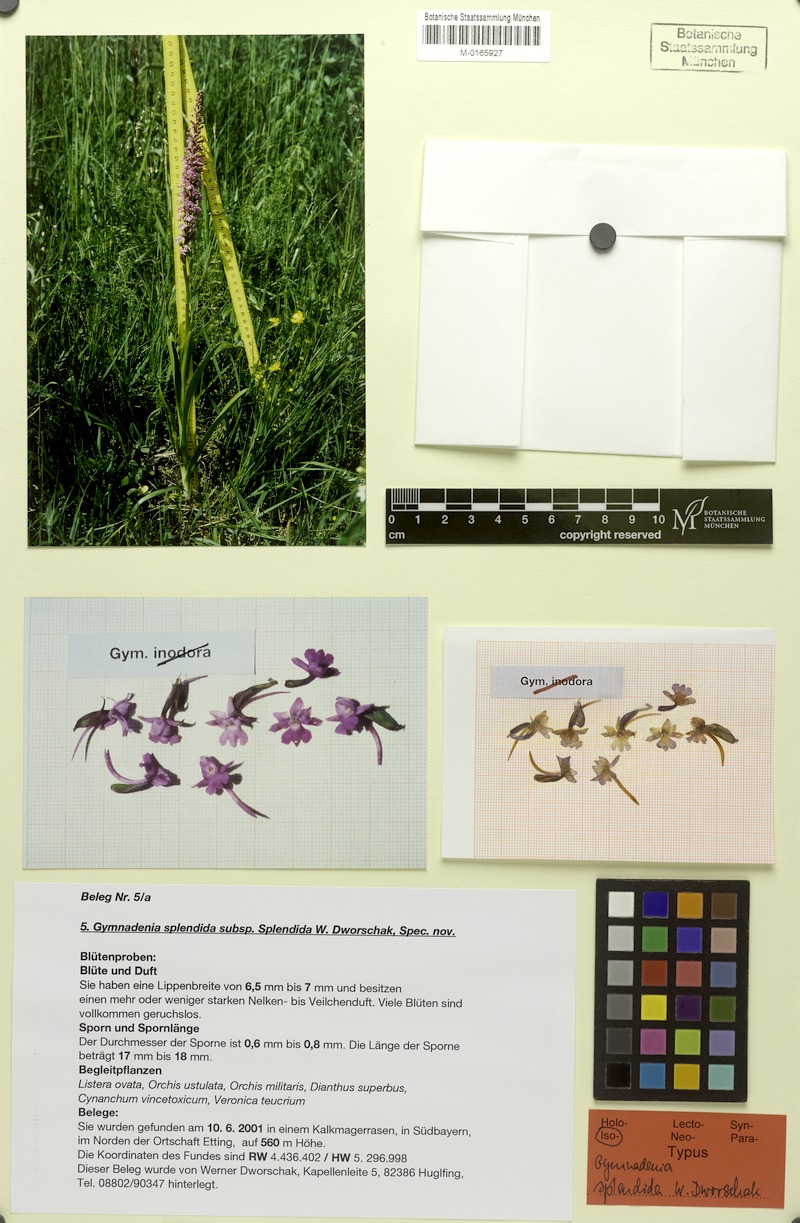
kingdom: Plantae
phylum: Tracheophyta
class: Liliopsida
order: Asparagales
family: Orchidaceae
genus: Gymnadenia
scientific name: Gymnadenia conopsea
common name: Fragrant orchid
